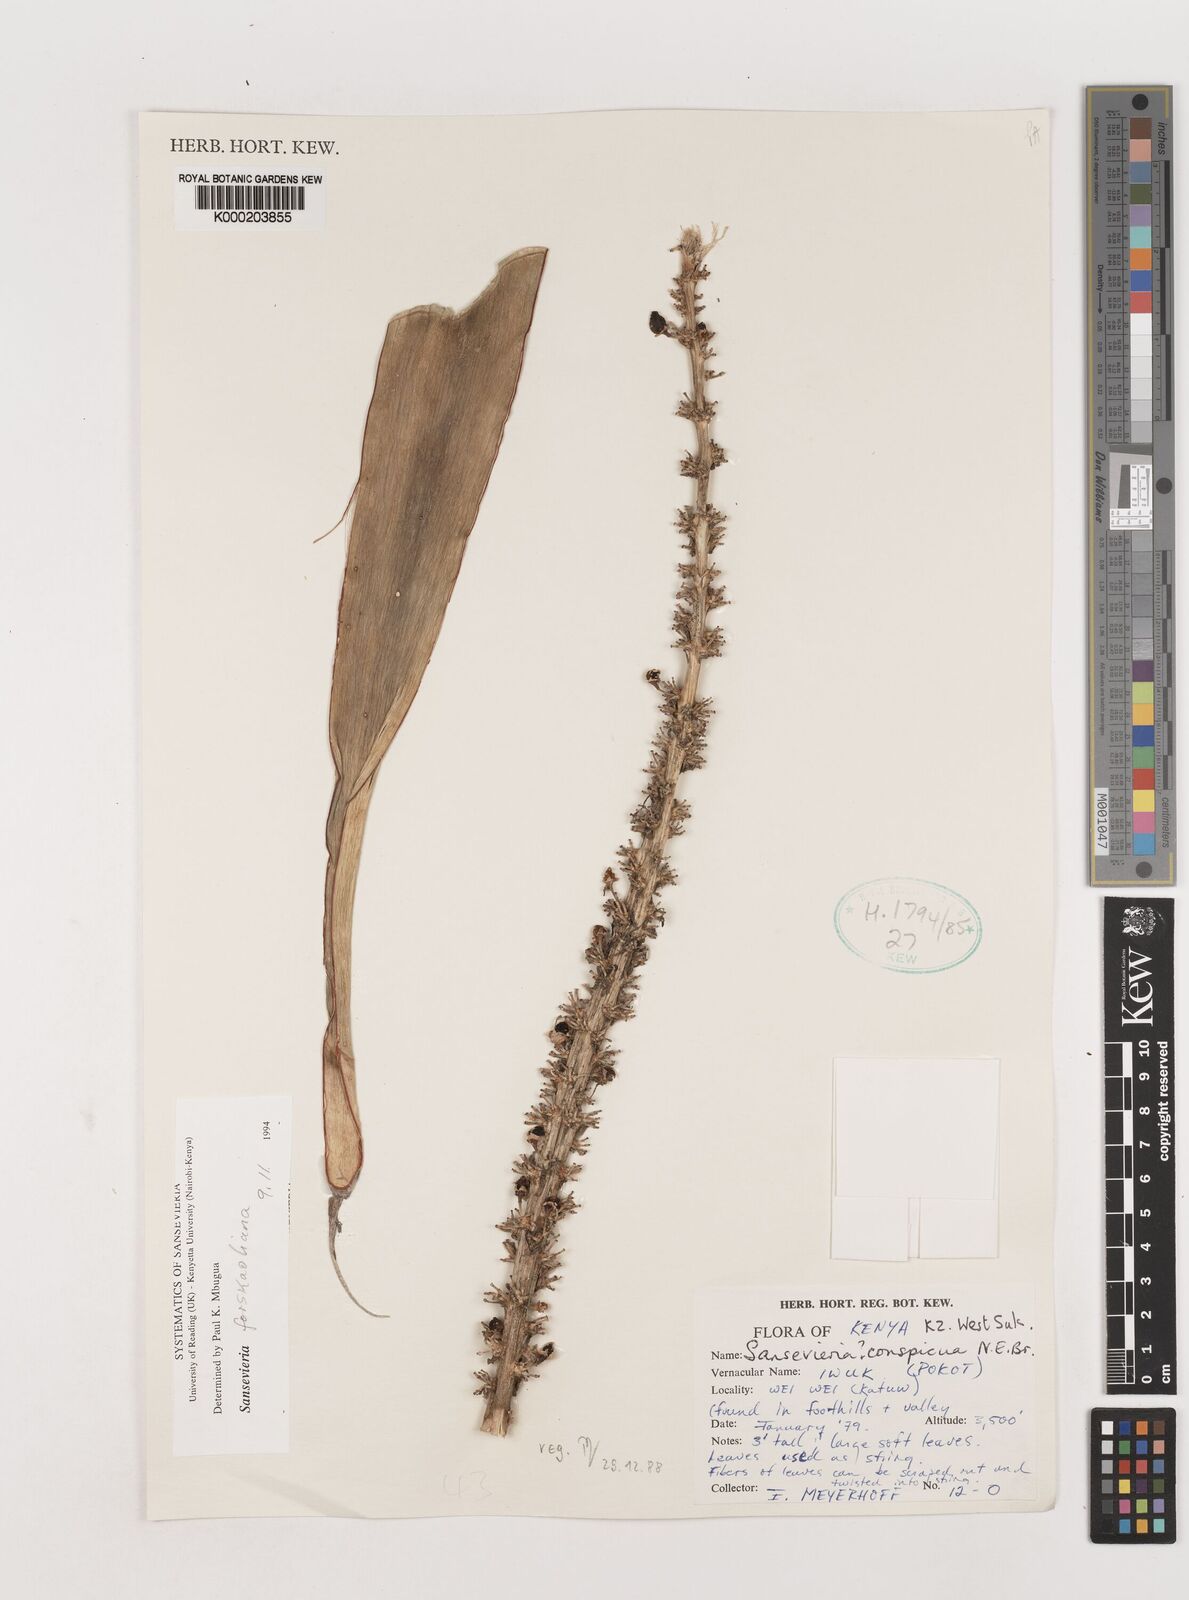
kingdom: Plantae
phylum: Tracheophyta
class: Liliopsida
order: Asparagales
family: Asparagaceae
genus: Dracaena
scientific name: Dracaena conspicua
